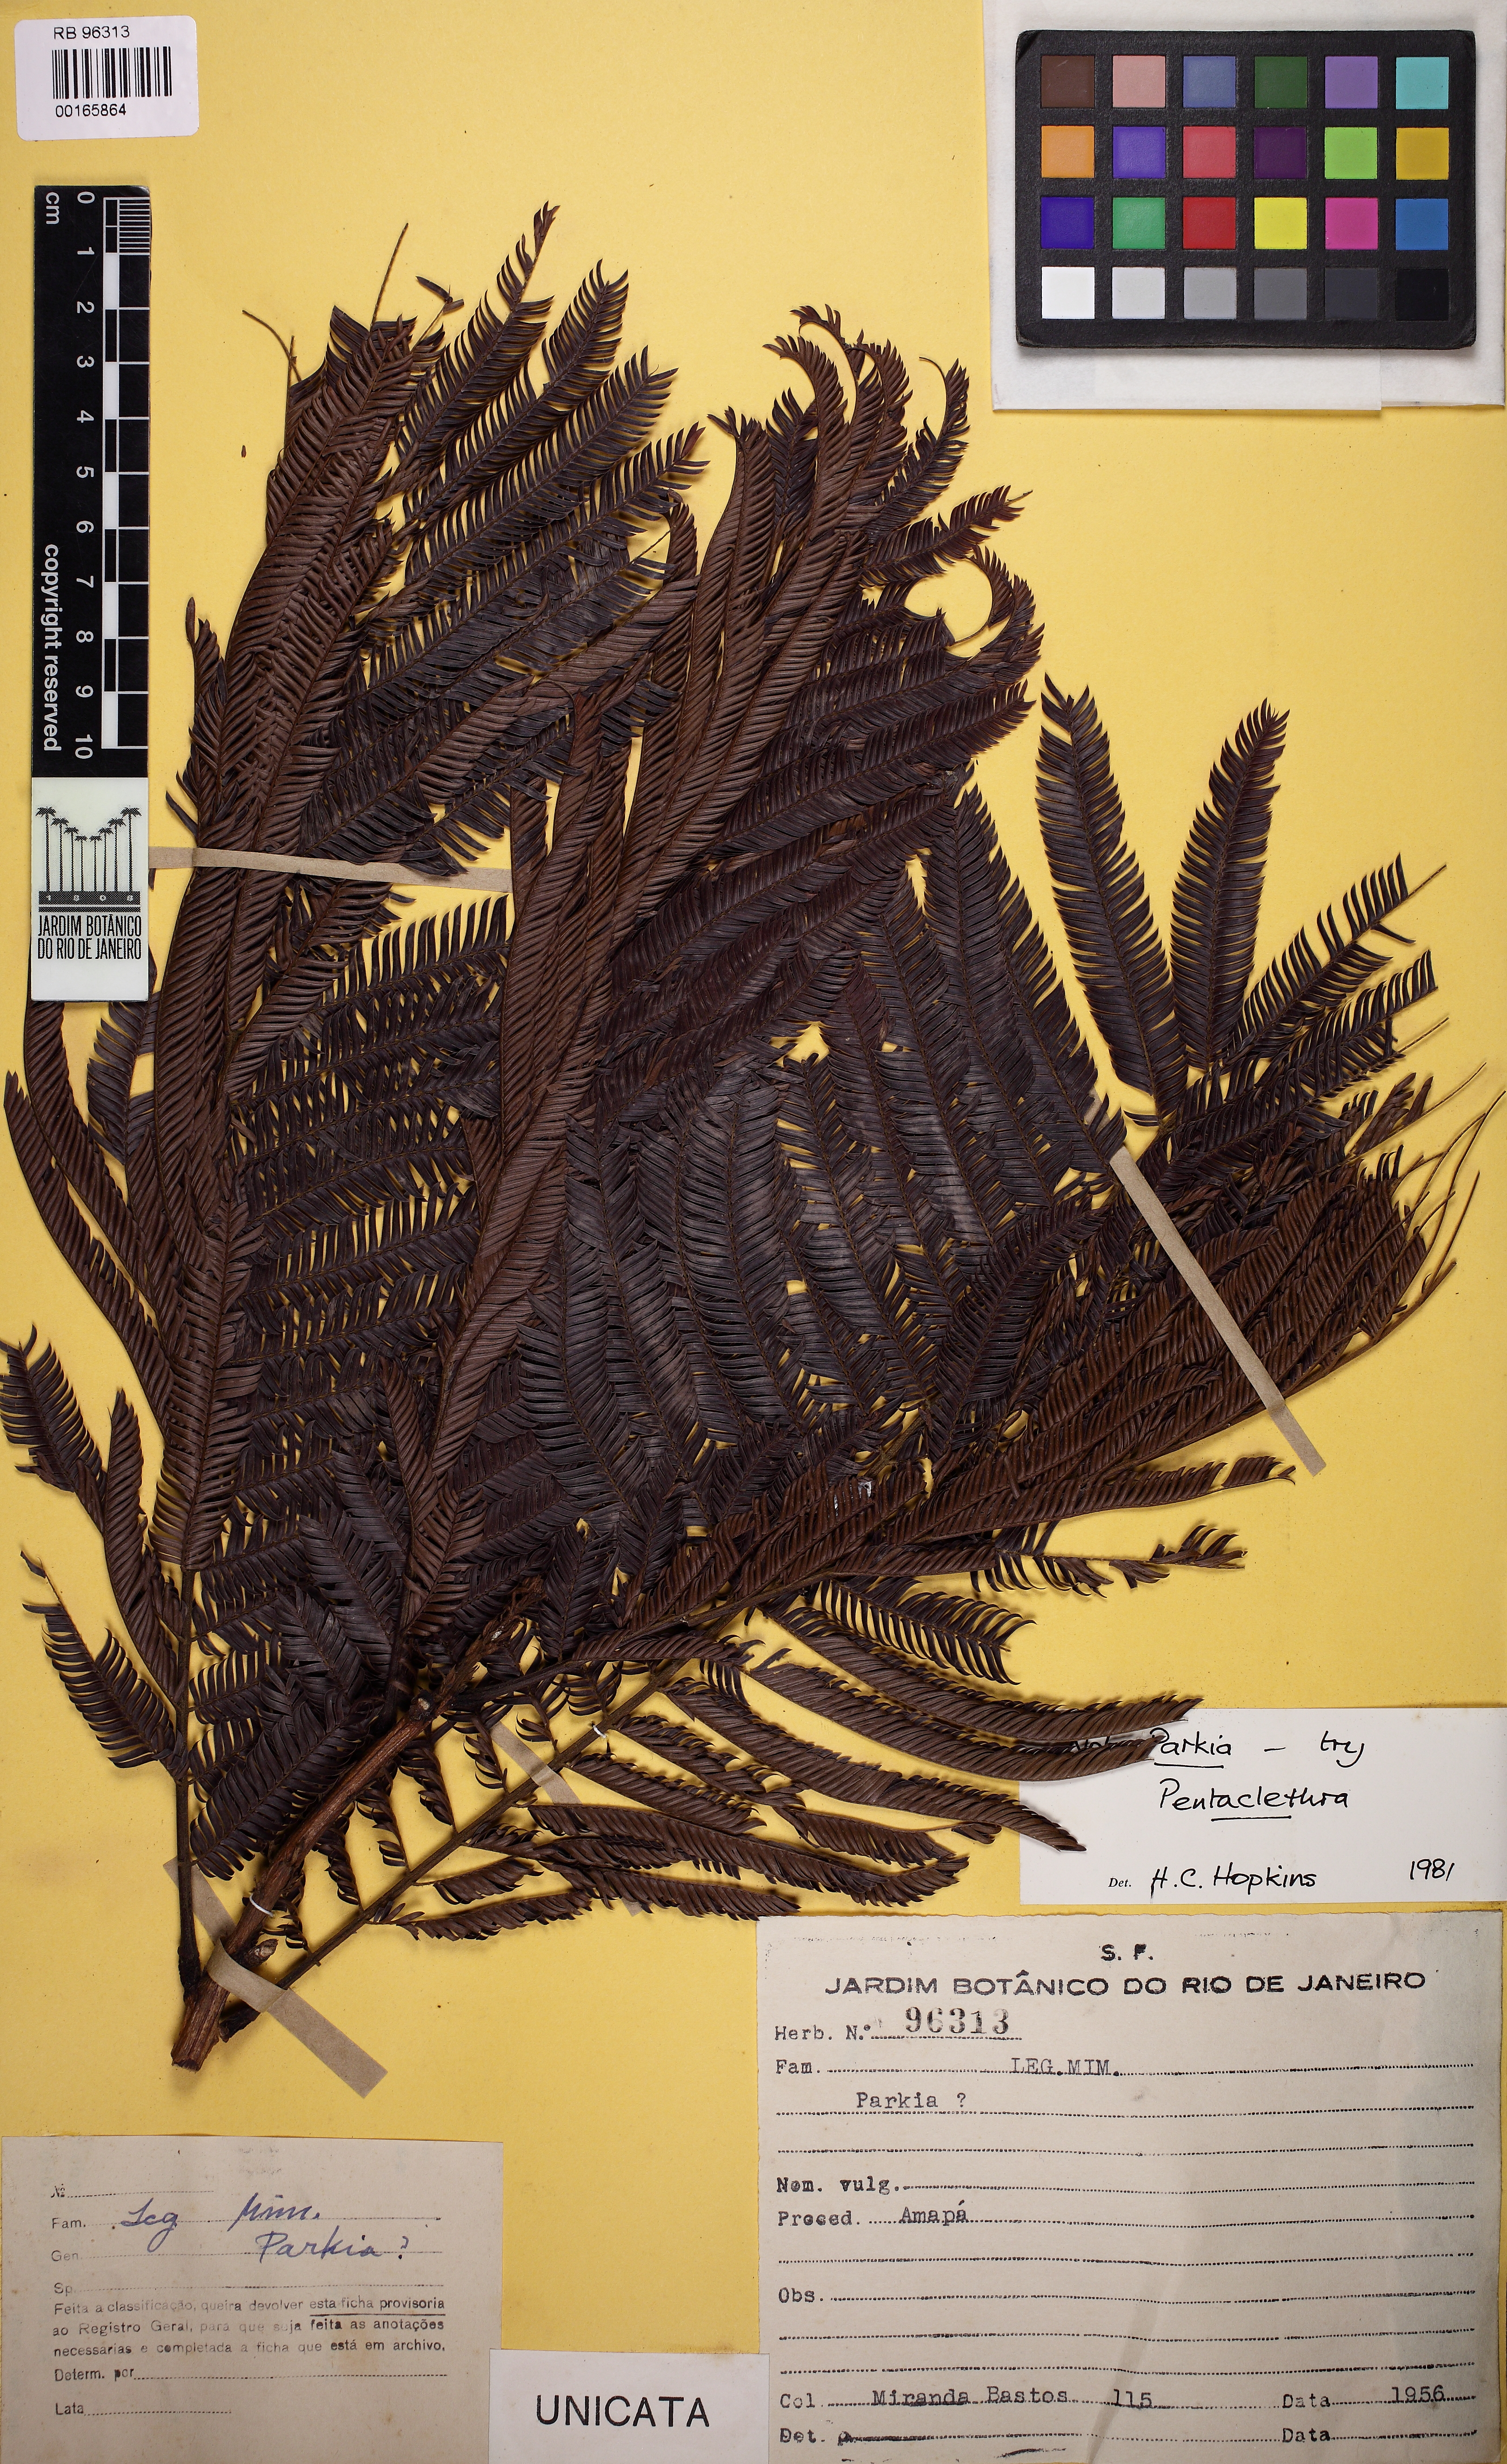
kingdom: Plantae
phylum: Tracheophyta
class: Magnoliopsida
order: Fabales
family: Fabaceae
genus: Pentaclethra
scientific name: Pentaclethra
